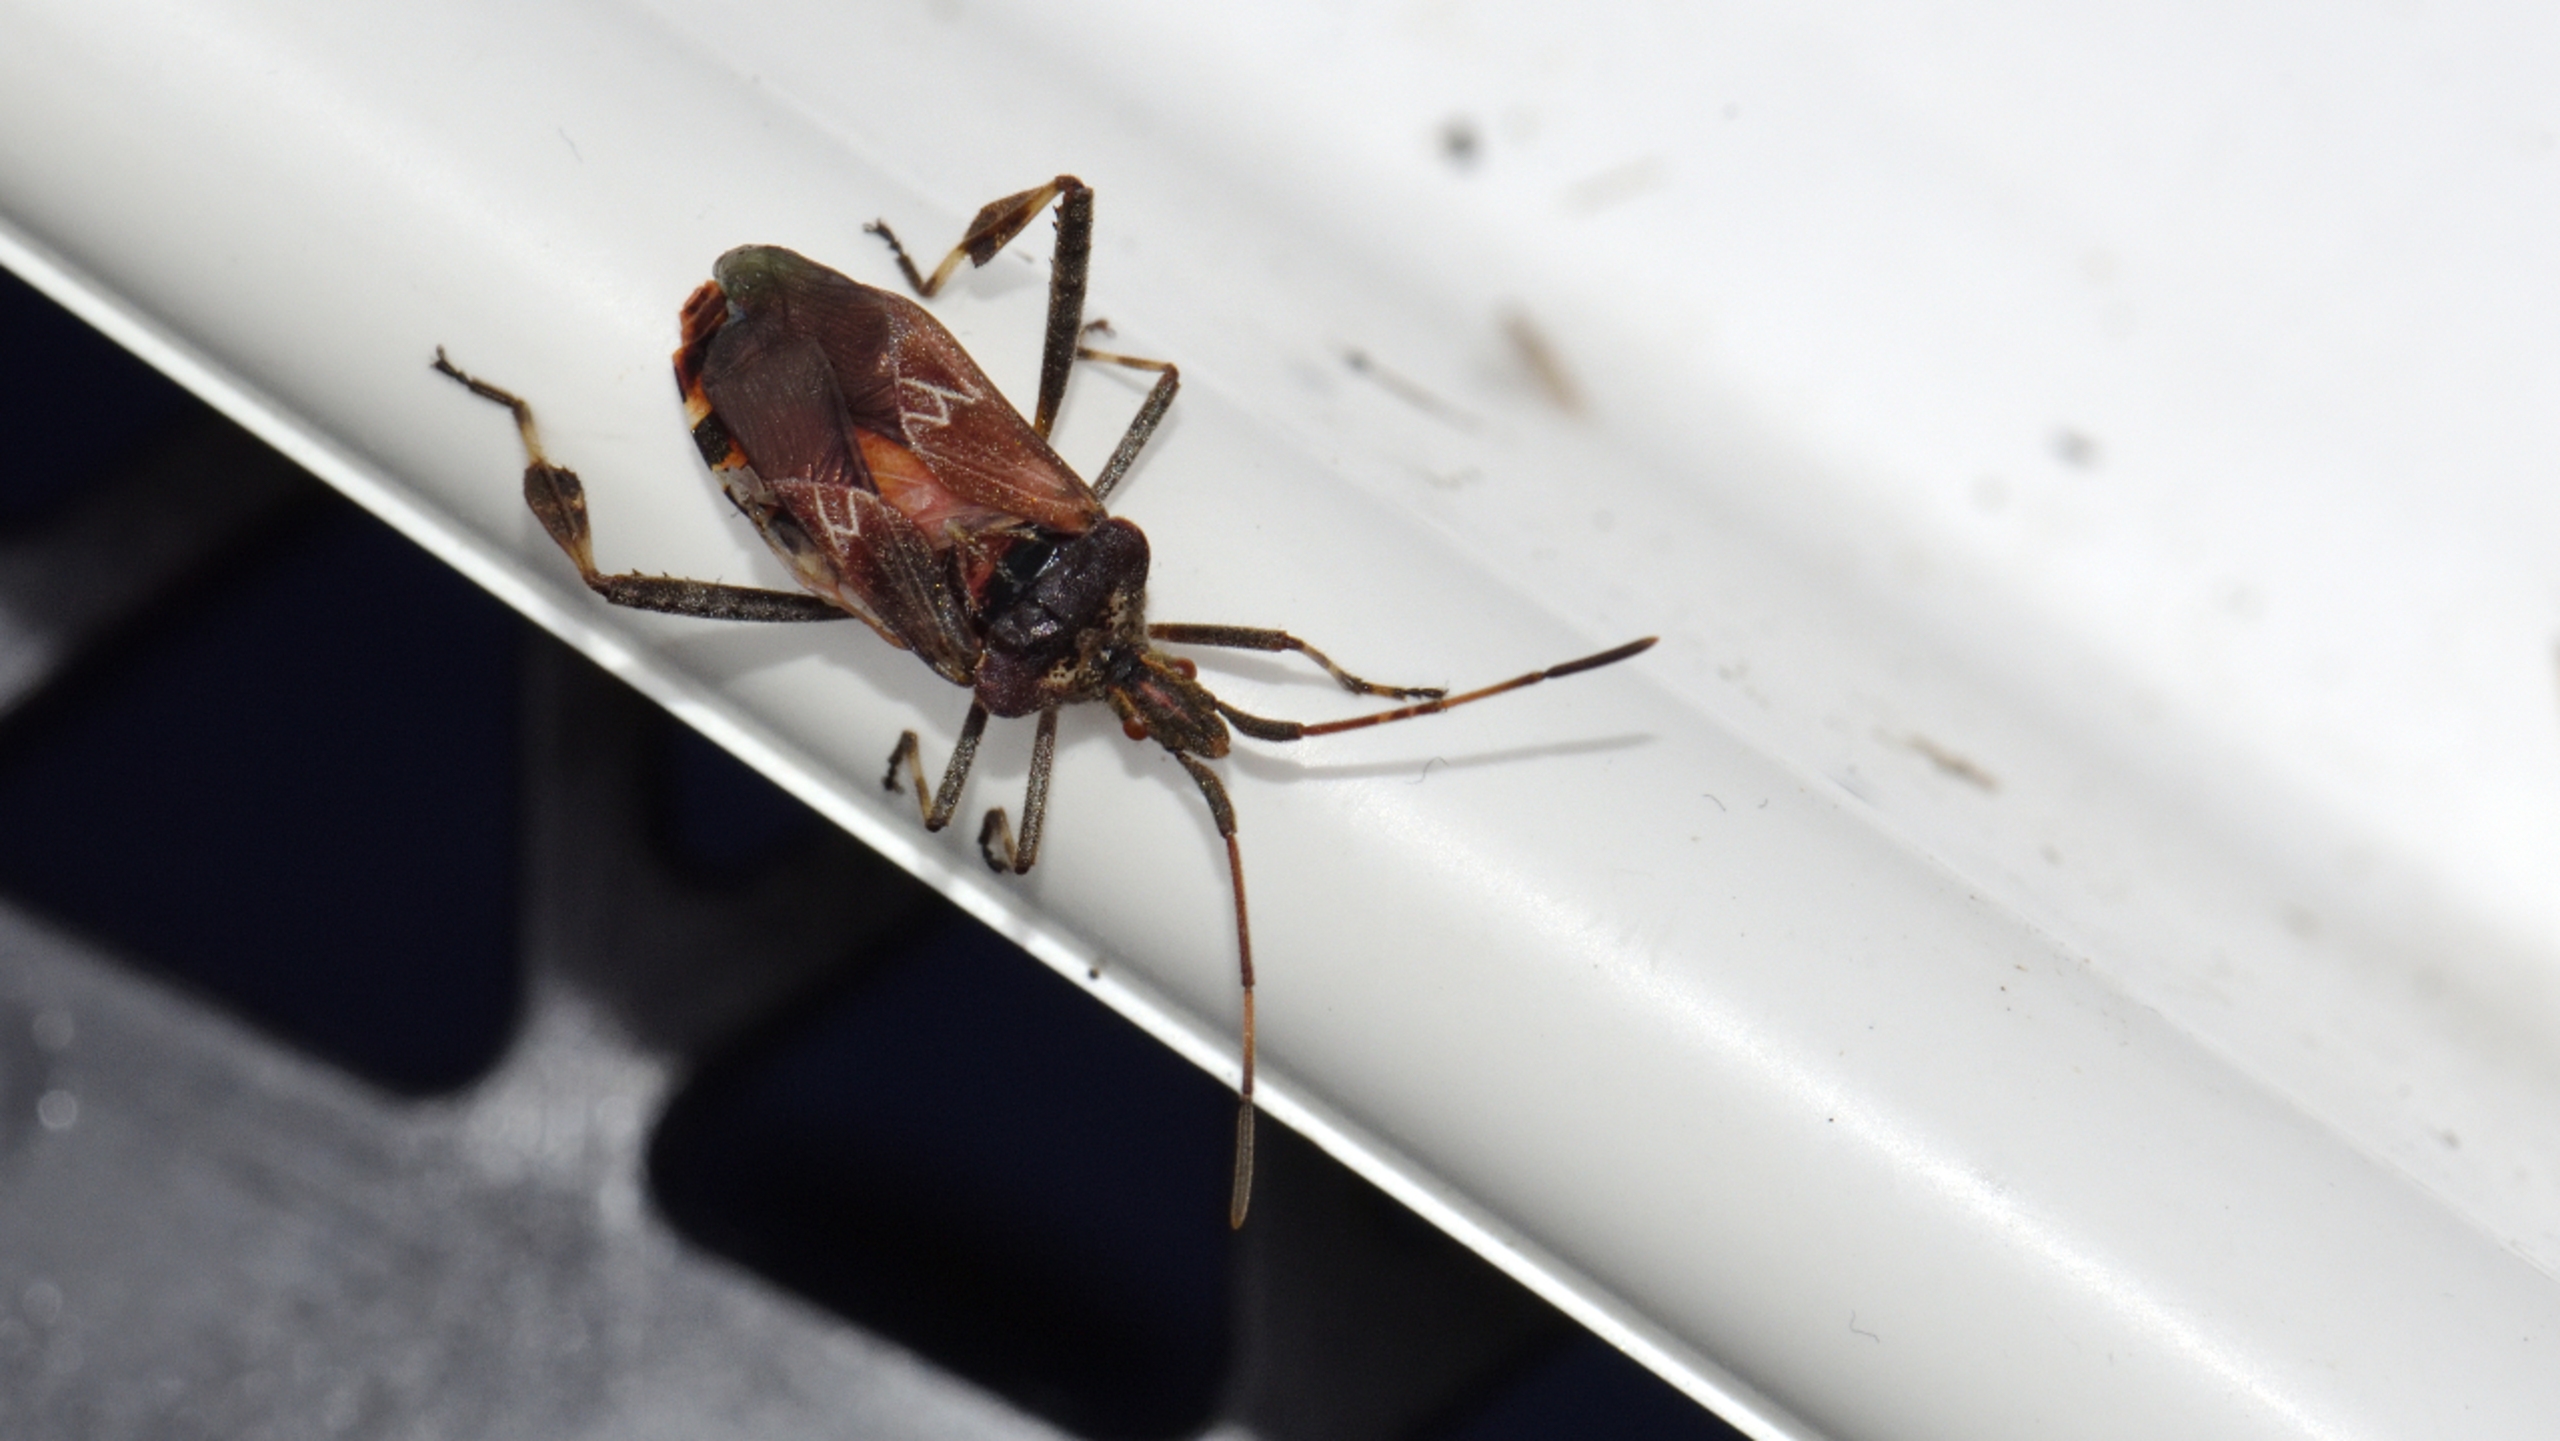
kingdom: Animalia
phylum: Arthropoda
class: Insecta
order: Hemiptera
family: Coreidae
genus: Leptoglossus
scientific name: Leptoglossus occidentalis
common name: Amerikansk fyrretæge
